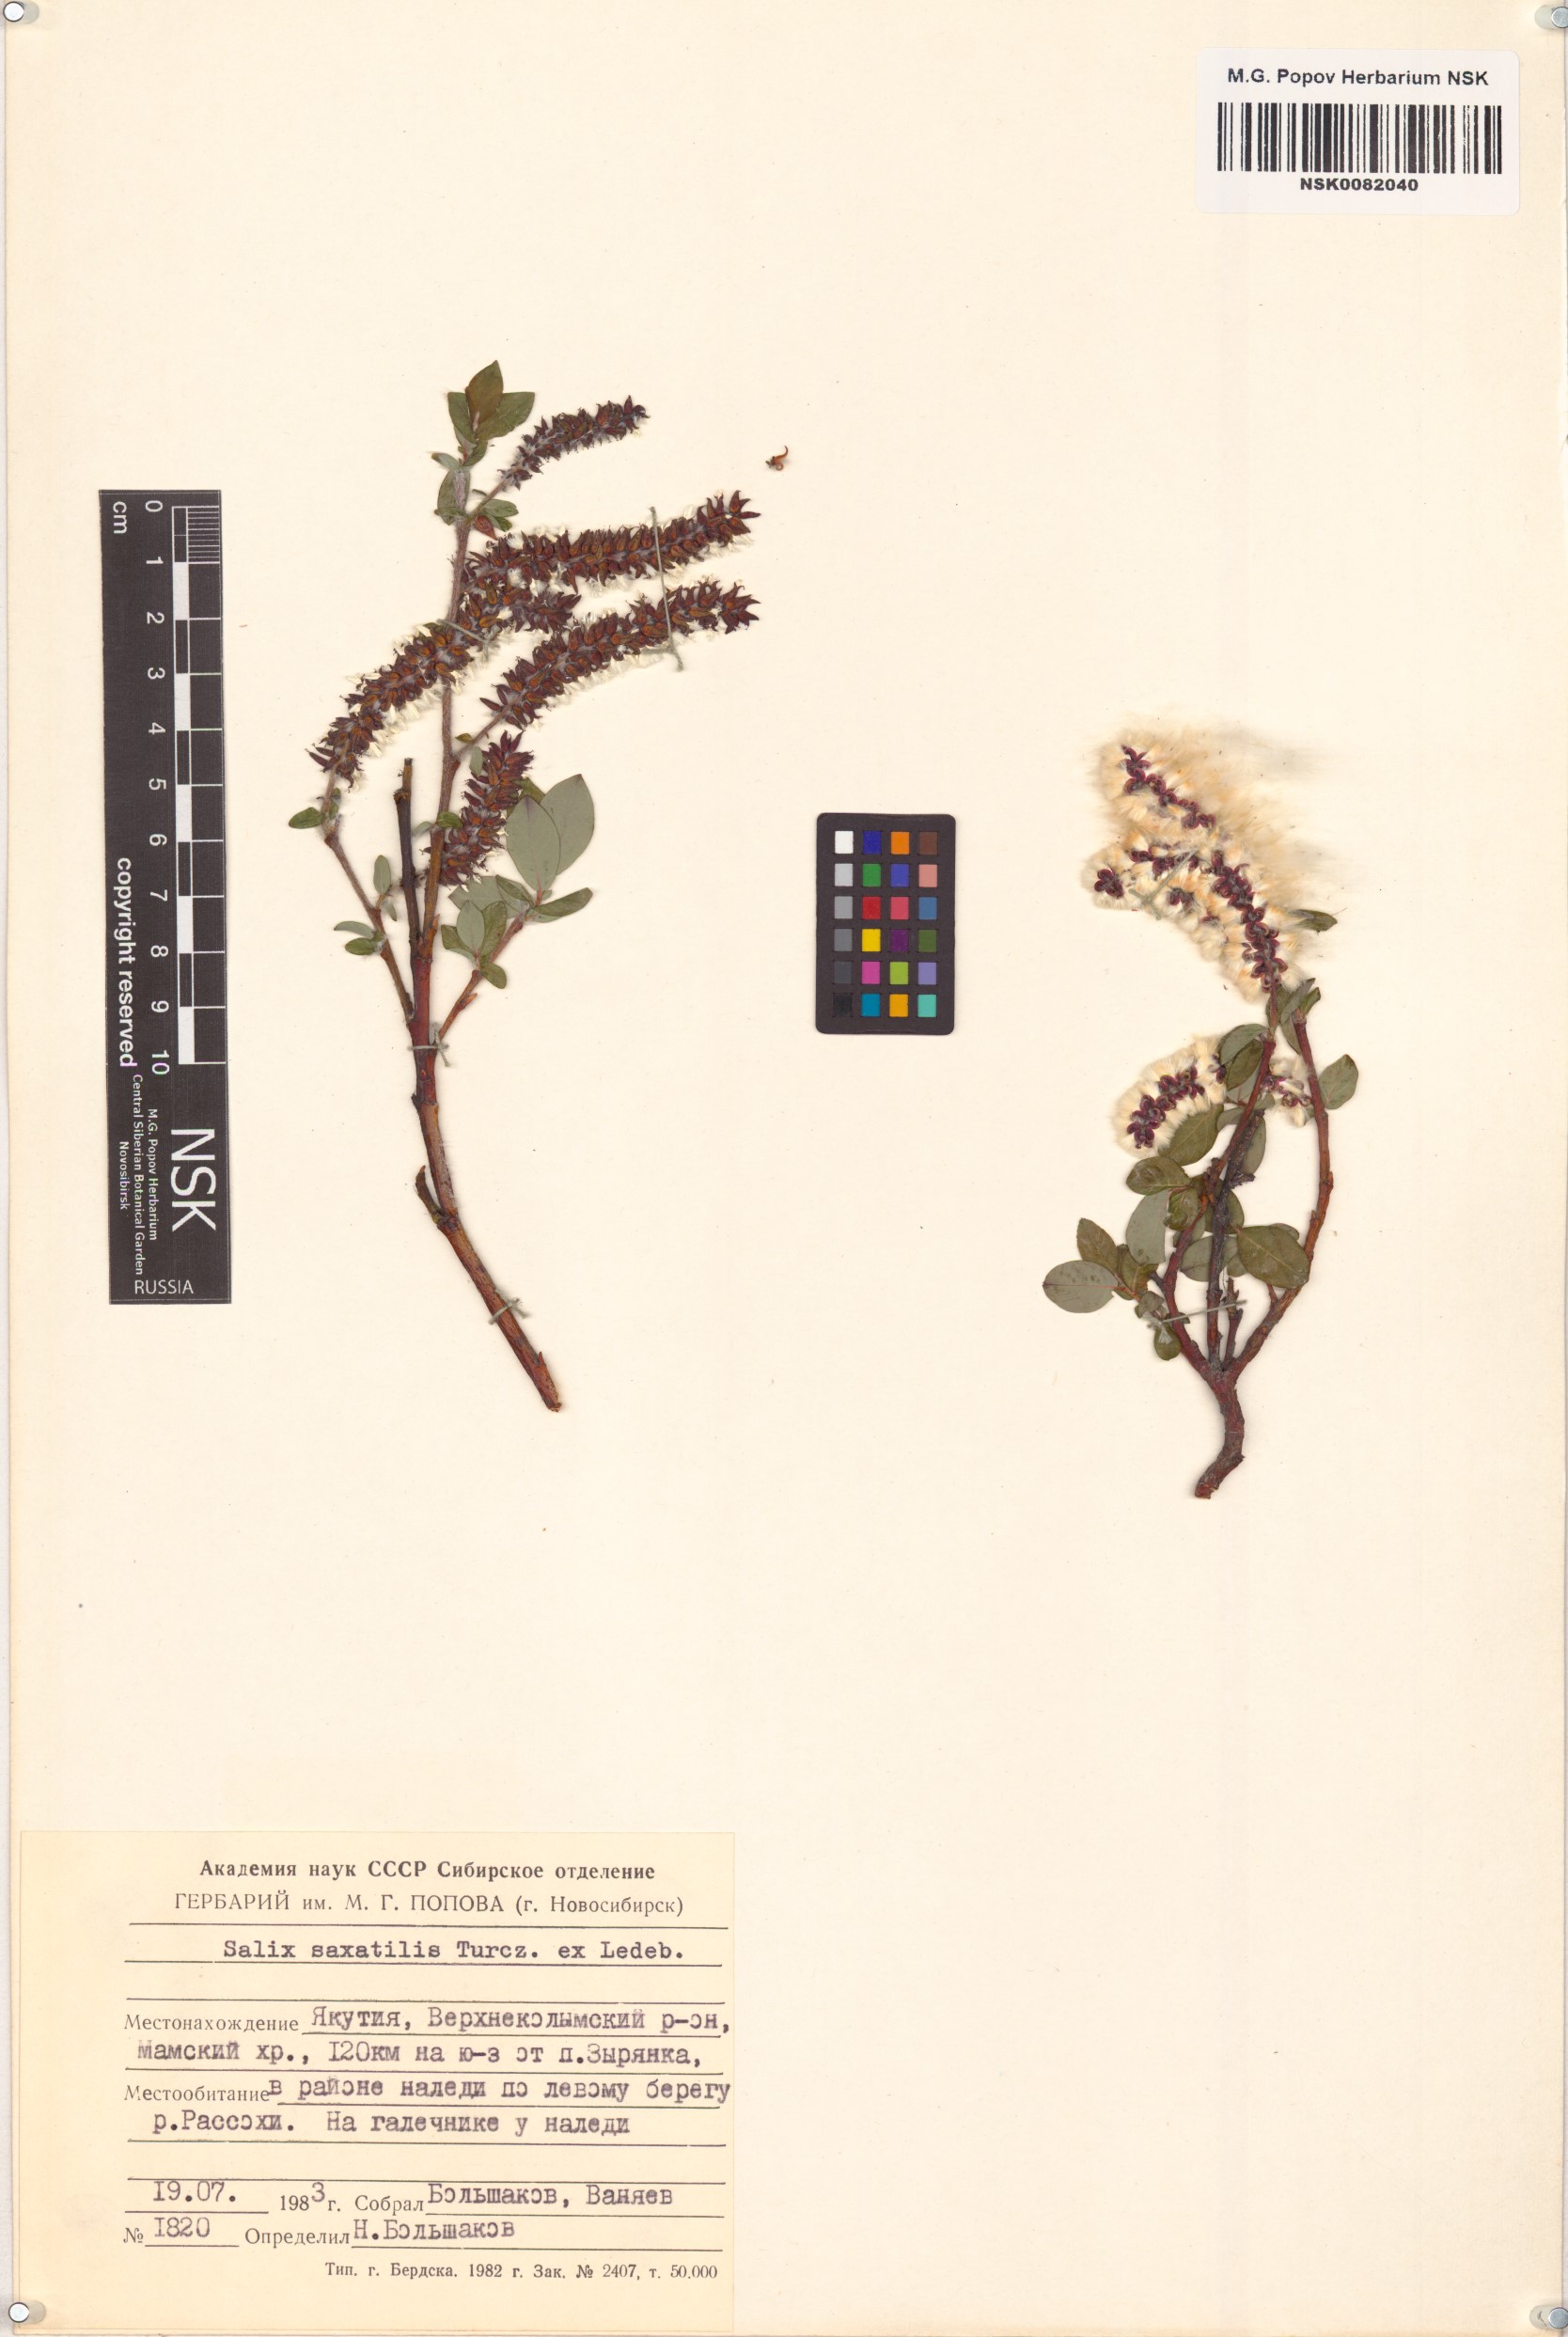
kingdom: Plantae
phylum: Tracheophyta
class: Magnoliopsida
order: Malpighiales
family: Salicaceae
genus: Salix
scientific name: Salix saxatilis
